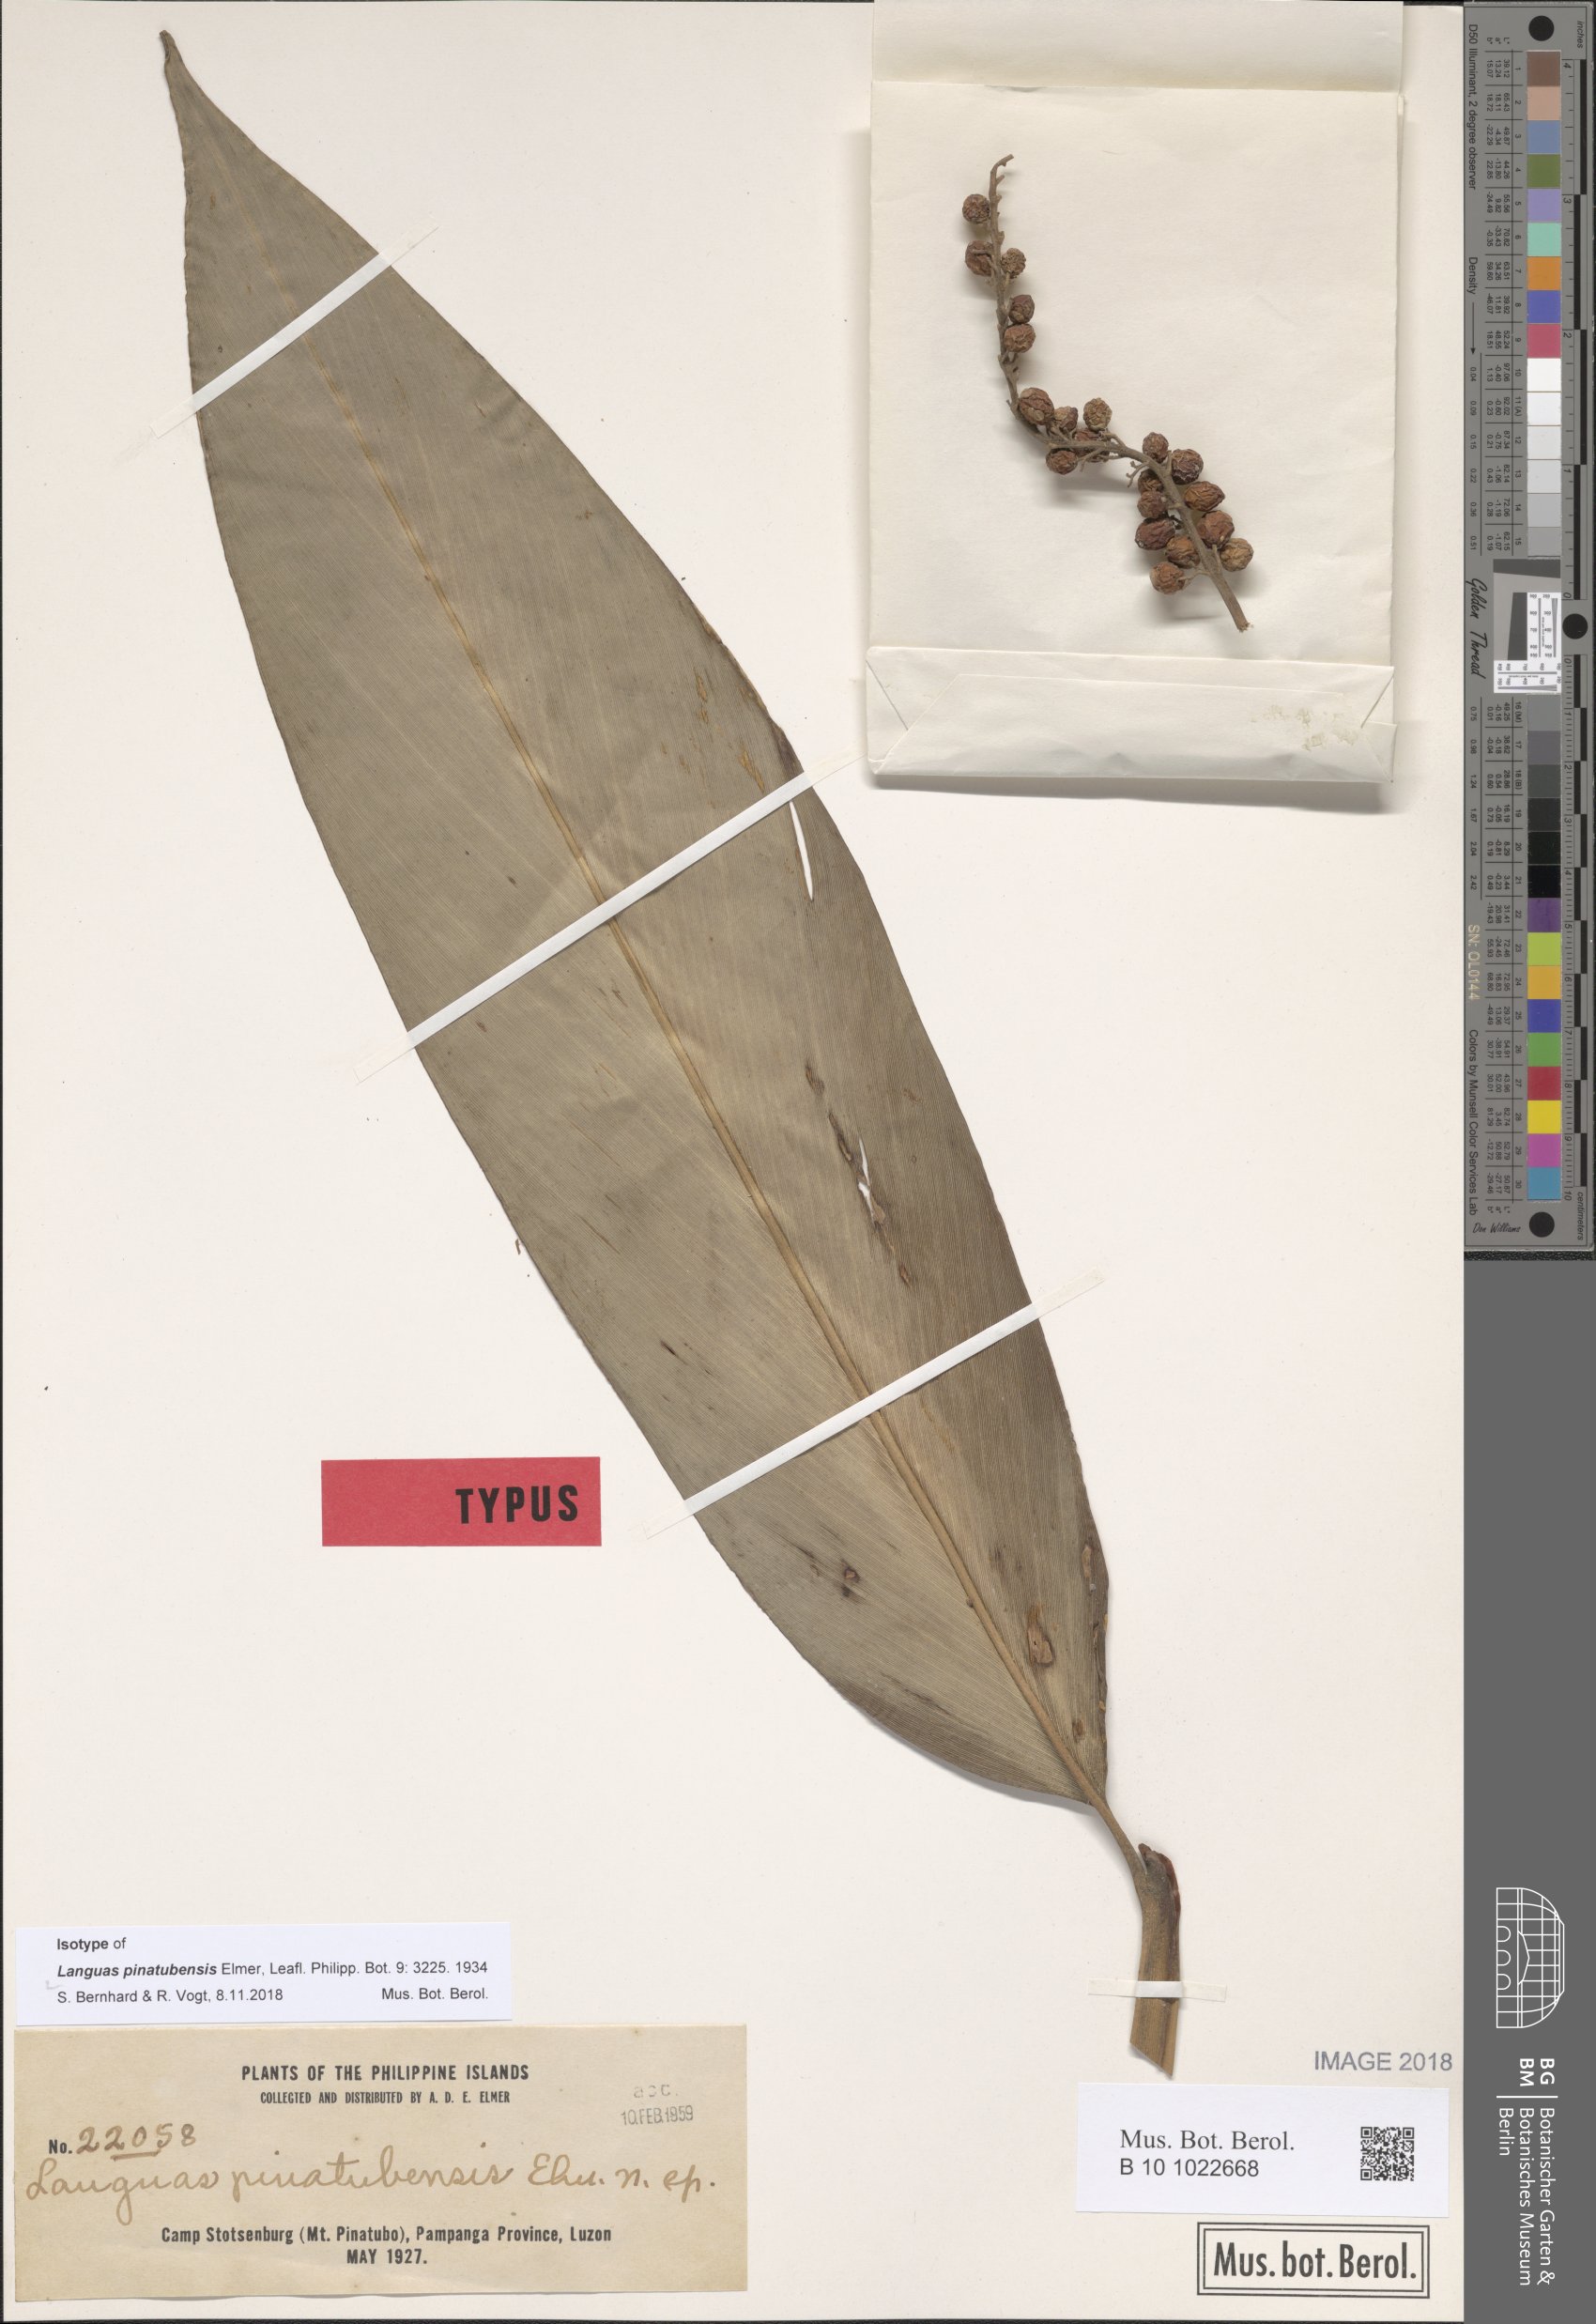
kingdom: Plantae
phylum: Tracheophyta
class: Liliopsida
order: Zingiberales
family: Zingiberaceae
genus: Alpinia
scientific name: Alpinia Languas pinatubensis
